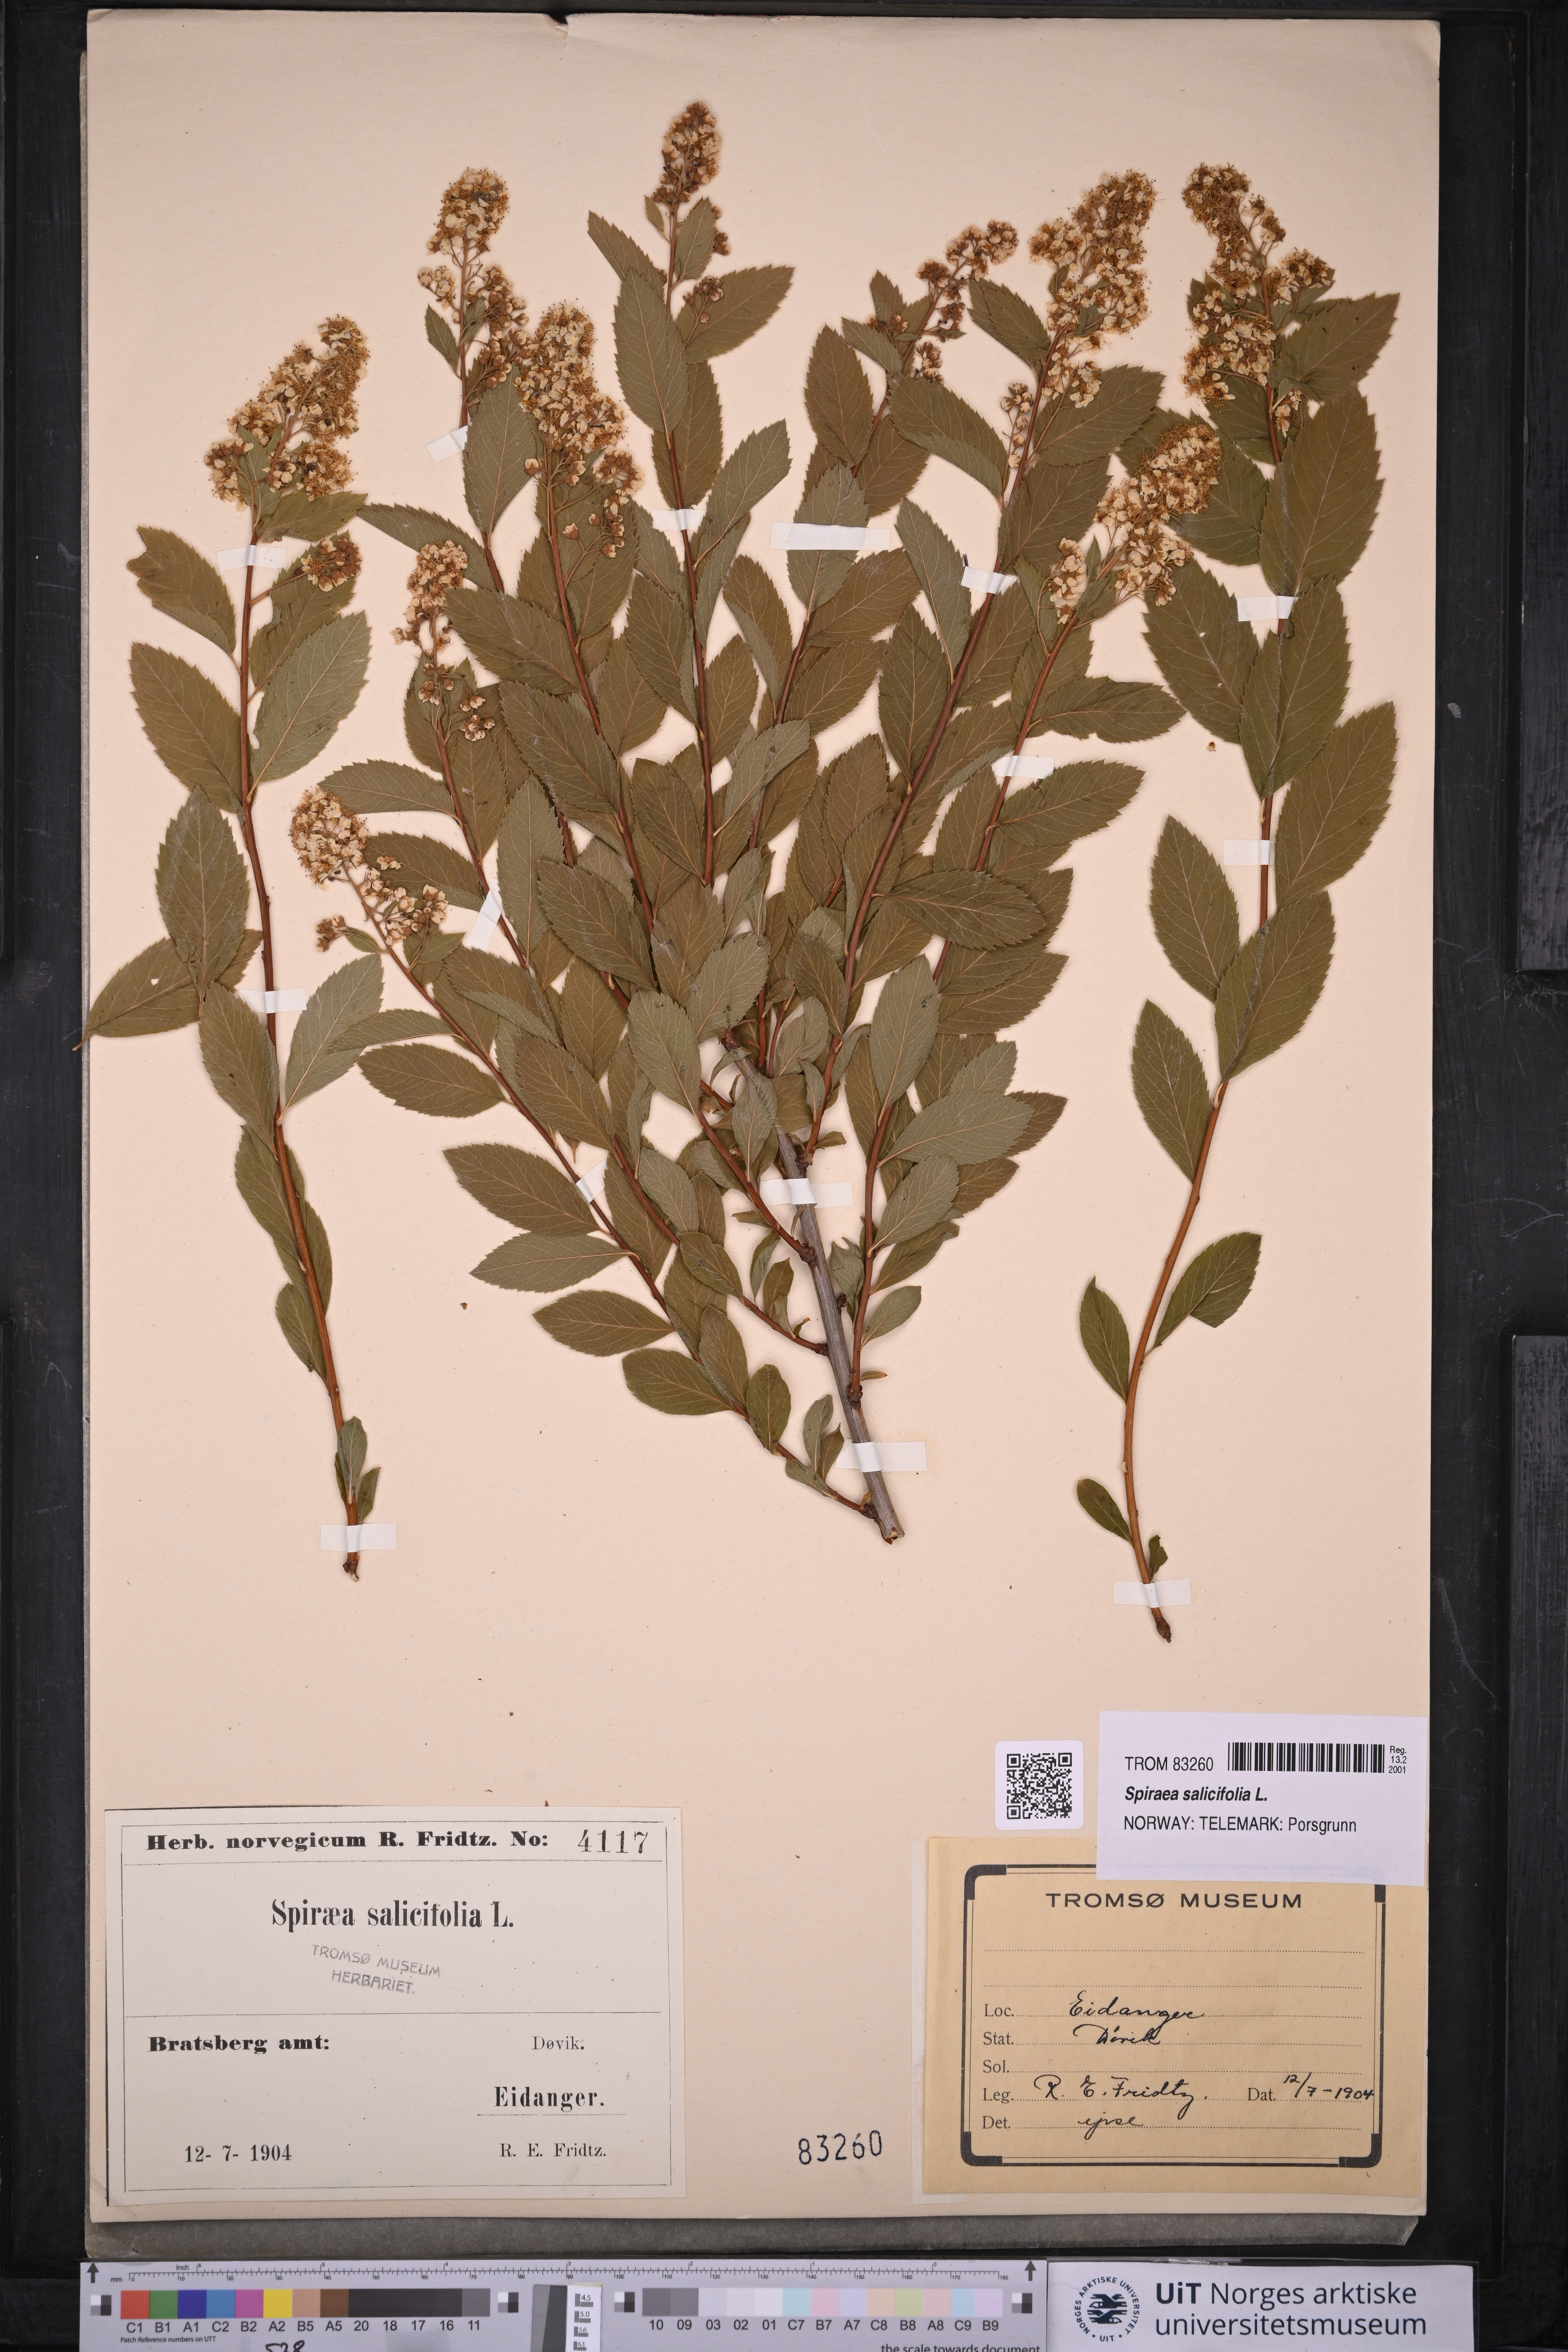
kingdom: Plantae
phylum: Tracheophyta
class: Magnoliopsida
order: Rosales
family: Rosaceae
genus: Spiraea
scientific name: Spiraea salicifolia
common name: Bridewort
